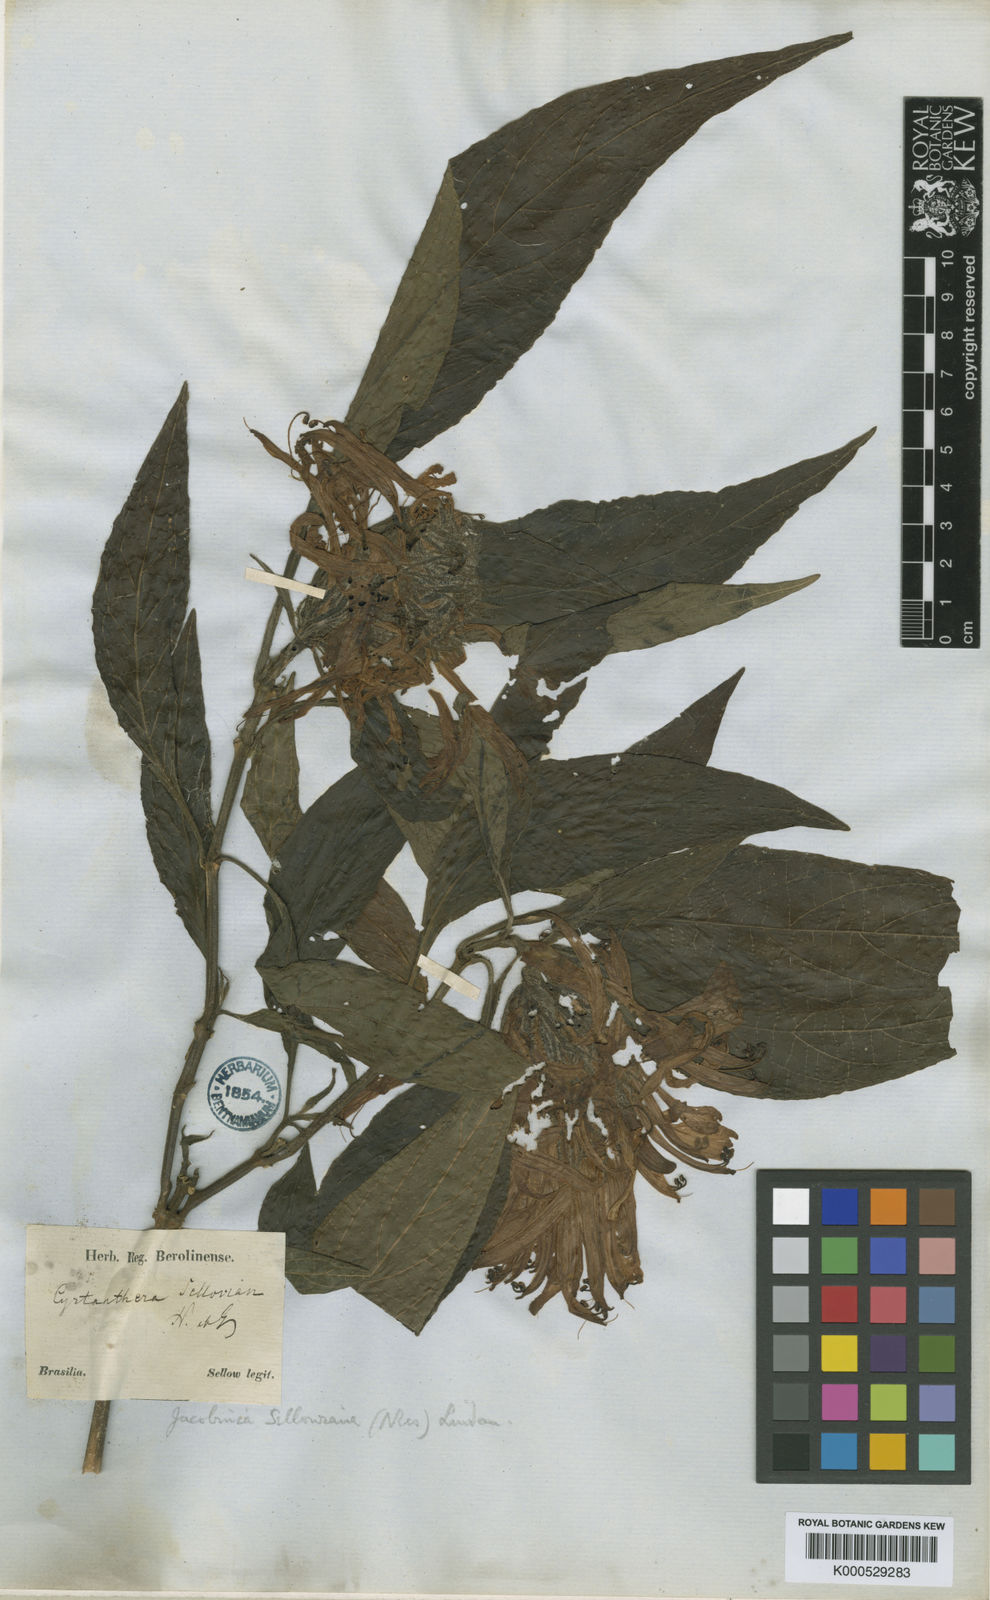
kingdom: Plantae
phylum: Tracheophyta
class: Magnoliopsida
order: Lamiales
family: Acanthaceae
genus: Justicia
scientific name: Justicia carnea
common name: Brazilian-plume
